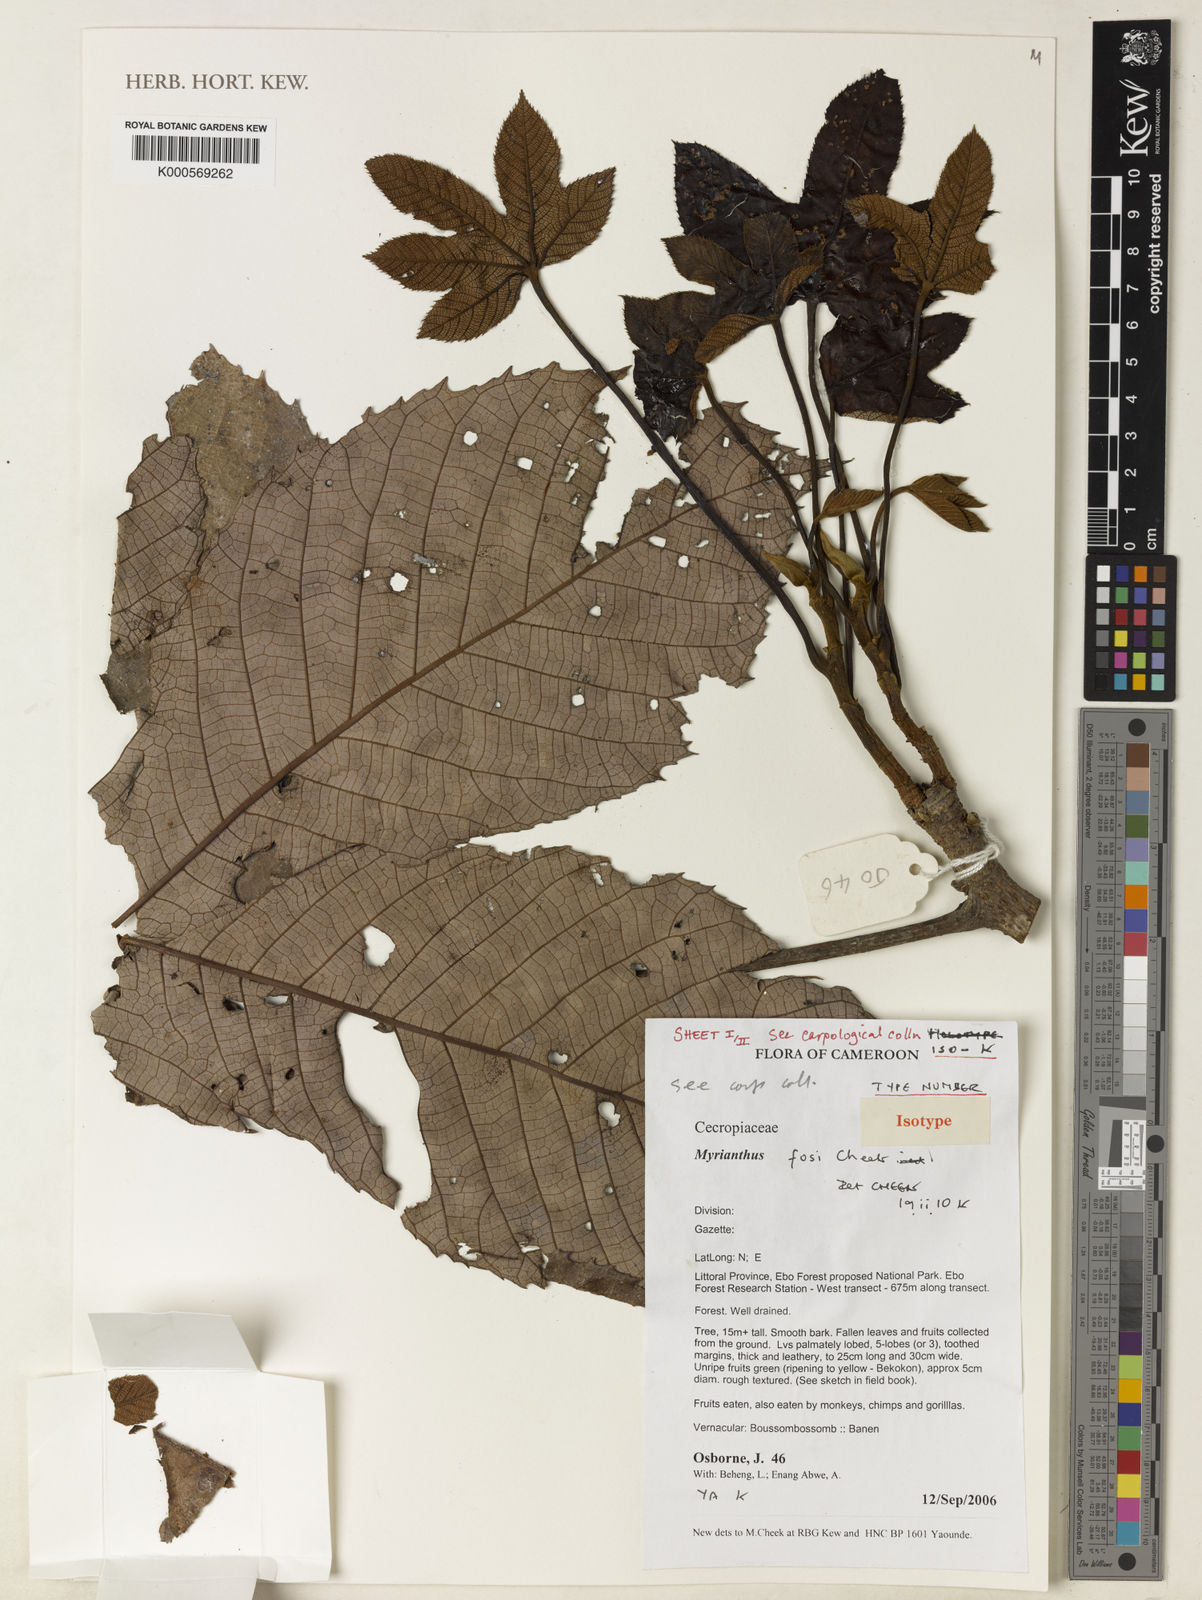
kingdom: Plantae
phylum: Tracheophyta
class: Magnoliopsida
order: Rosales
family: Urticaceae
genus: Myrianthus
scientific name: Myrianthus fosi
